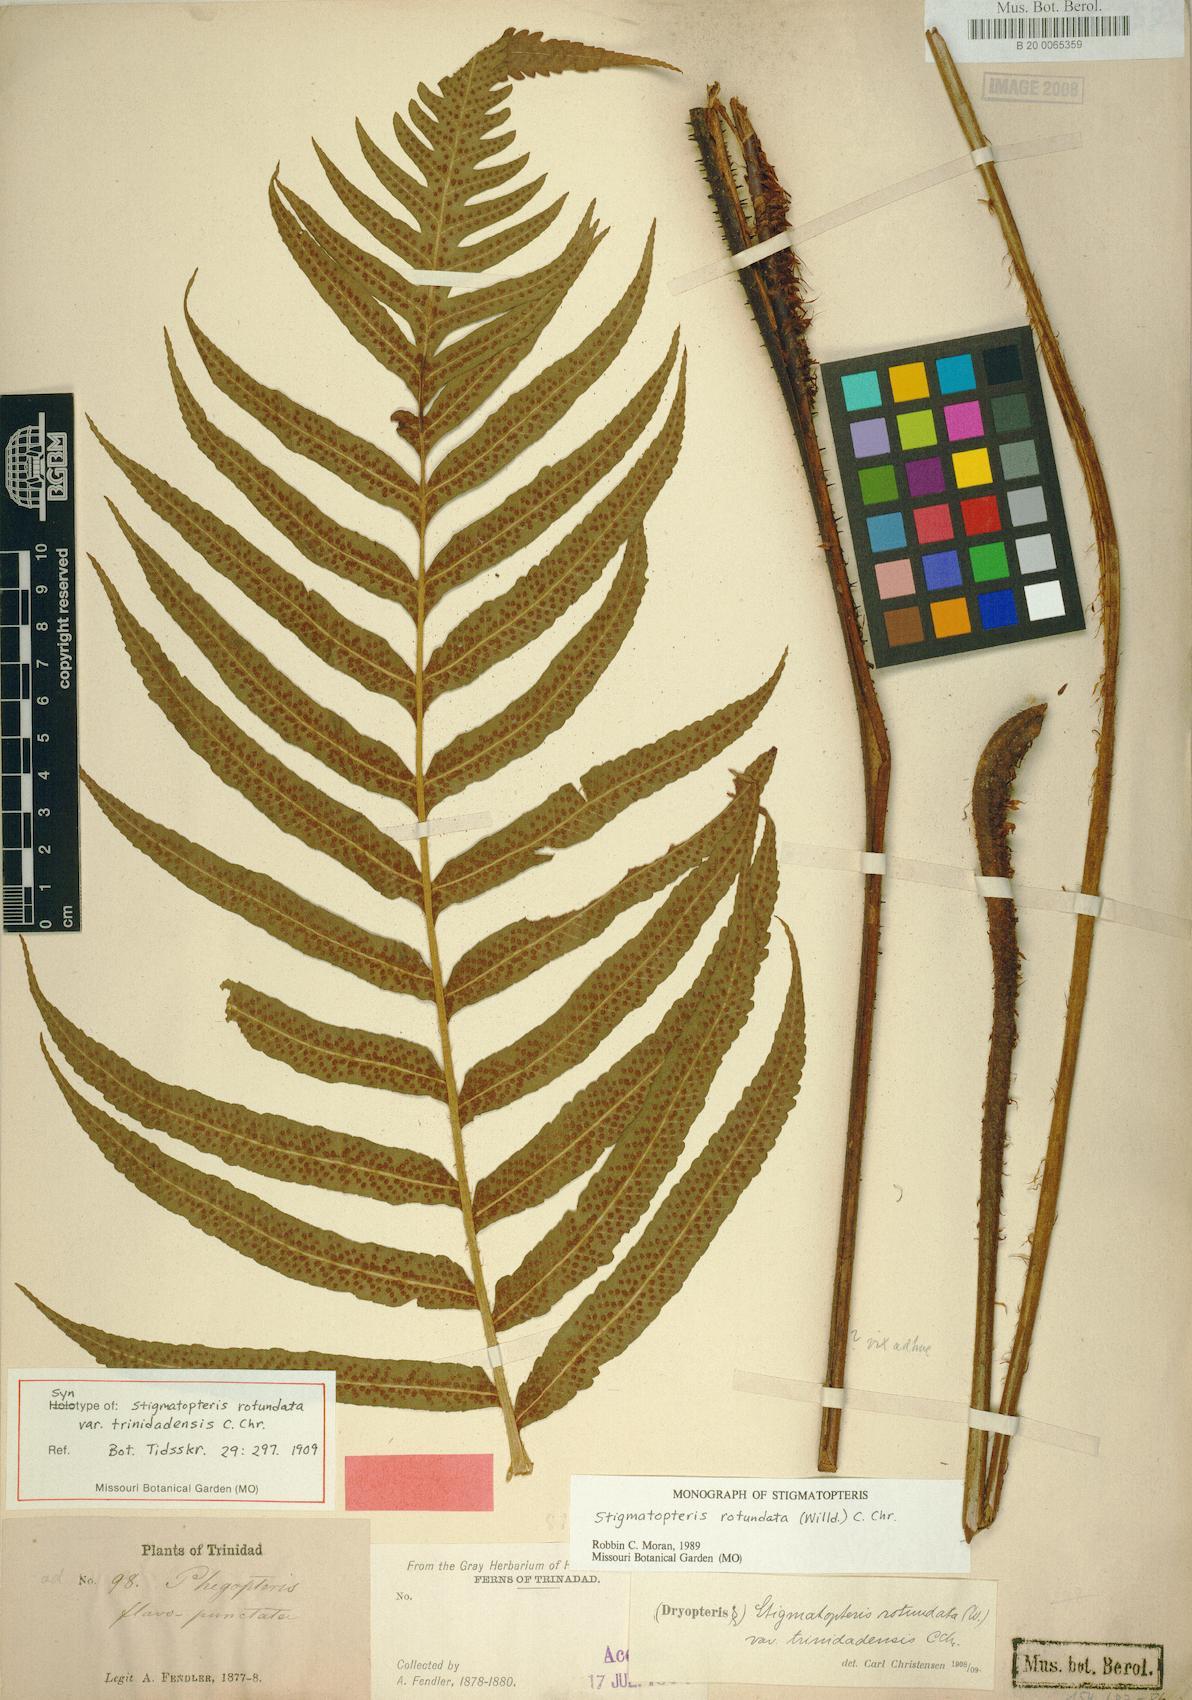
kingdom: Plantae
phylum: Tracheophyta
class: Polypodiopsida
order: Polypodiales
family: Dryopteridaceae
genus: Stigmatopteris
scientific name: Stigmatopteris rotundata
